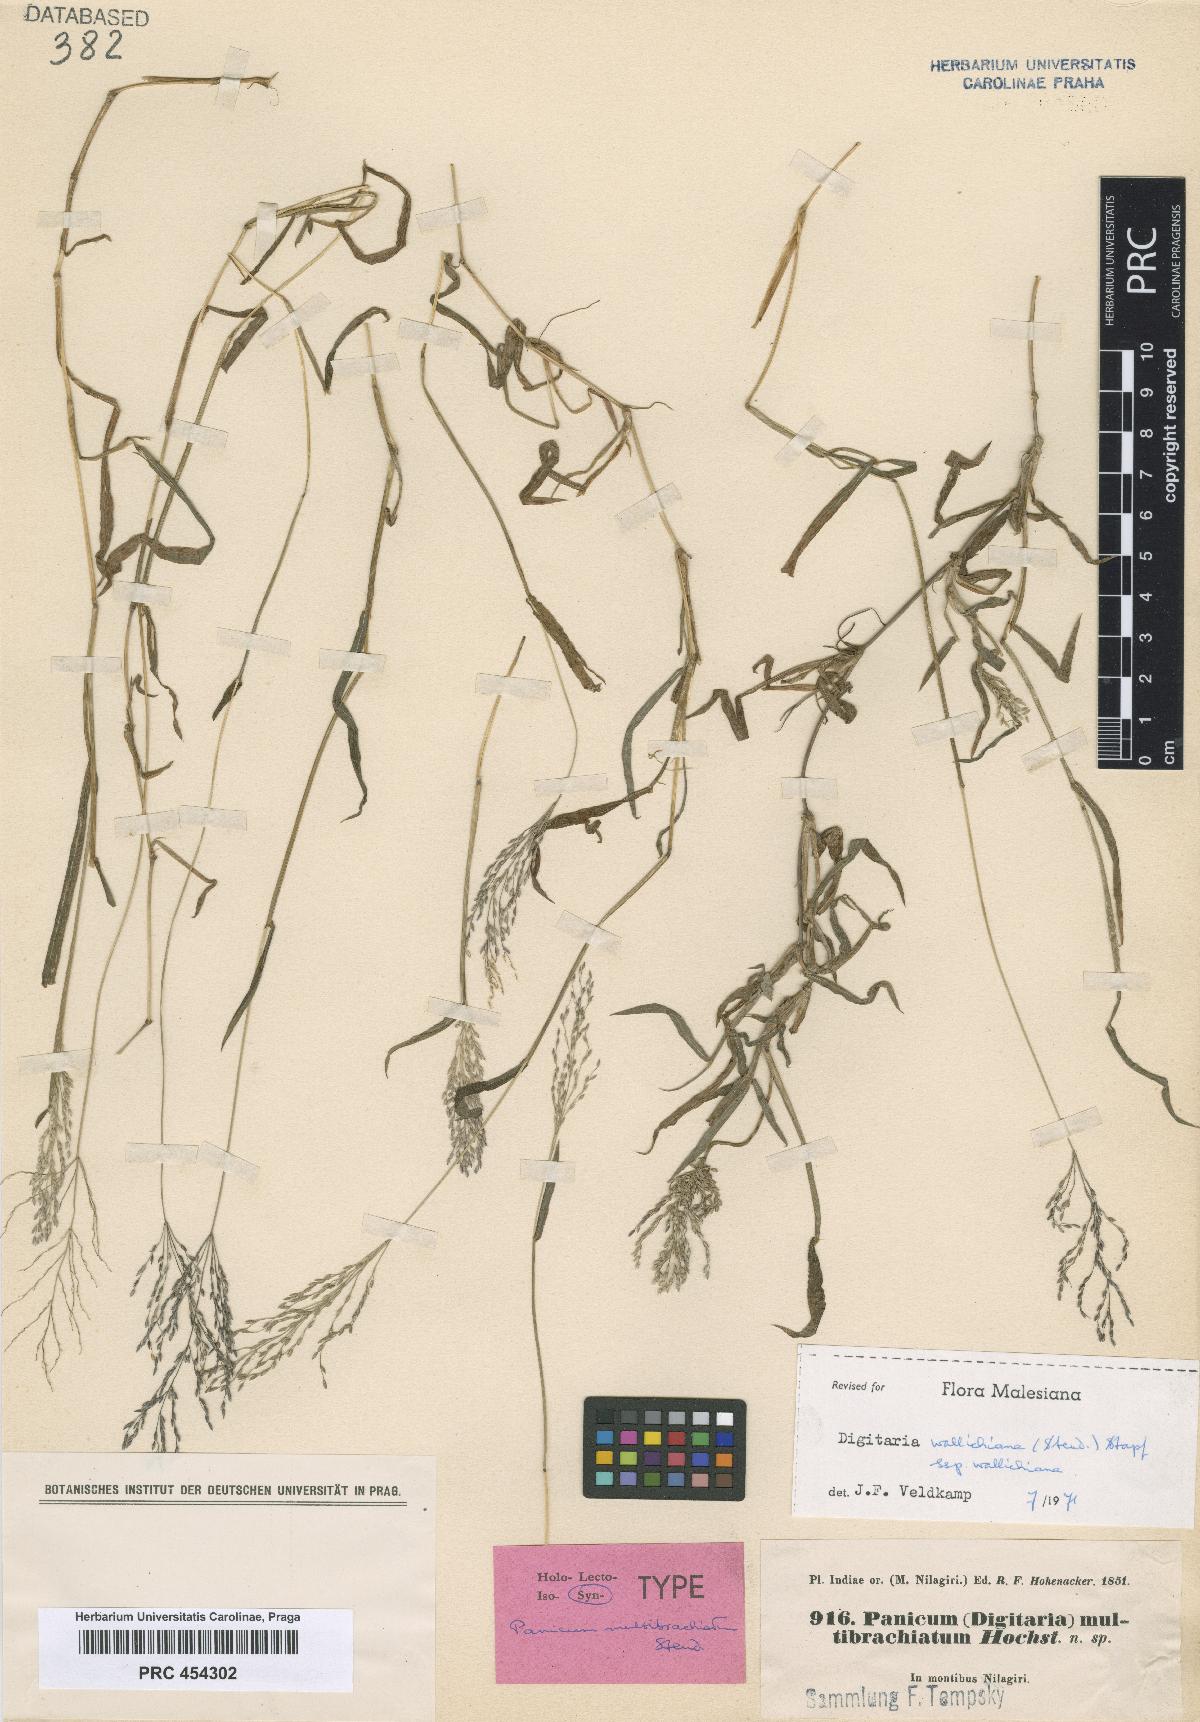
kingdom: Plantae
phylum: Tracheophyta
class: Liliopsida
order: Poales
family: Poaceae
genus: Digitaria
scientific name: Digitaria wallichiana
